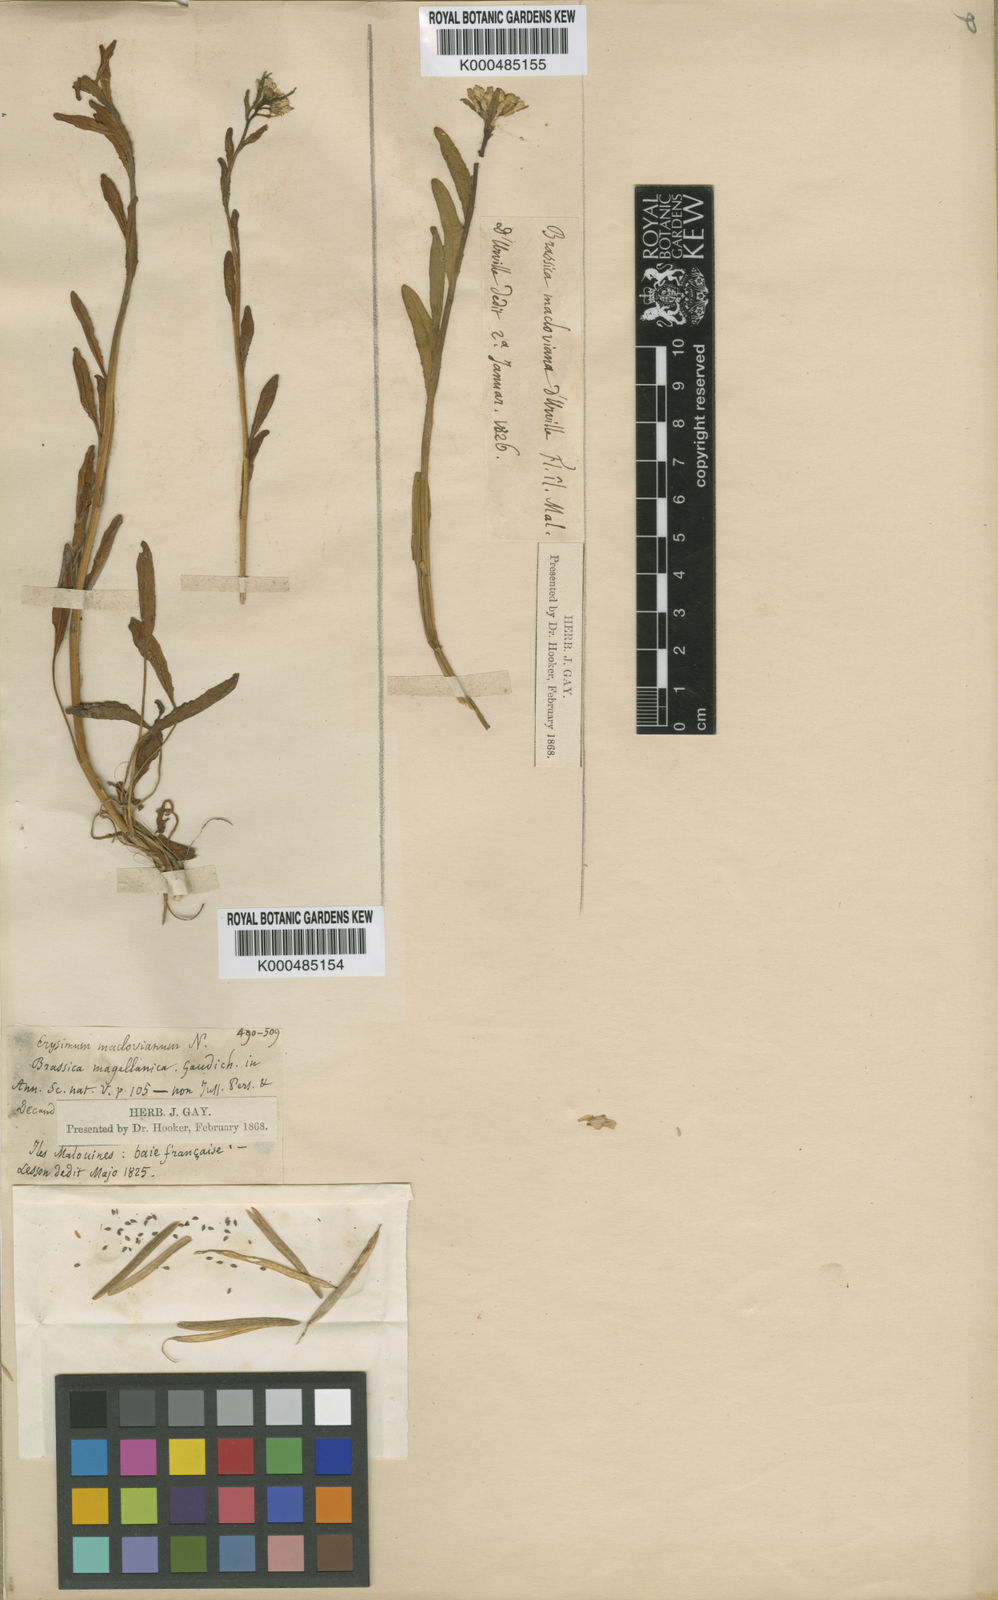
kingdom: Plantae
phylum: Tracheophyta
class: Magnoliopsida
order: Brassicales
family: Brassicaceae
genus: Phlebolobium
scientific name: Phlebolobium maclovianum
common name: Falkland rock-cress
